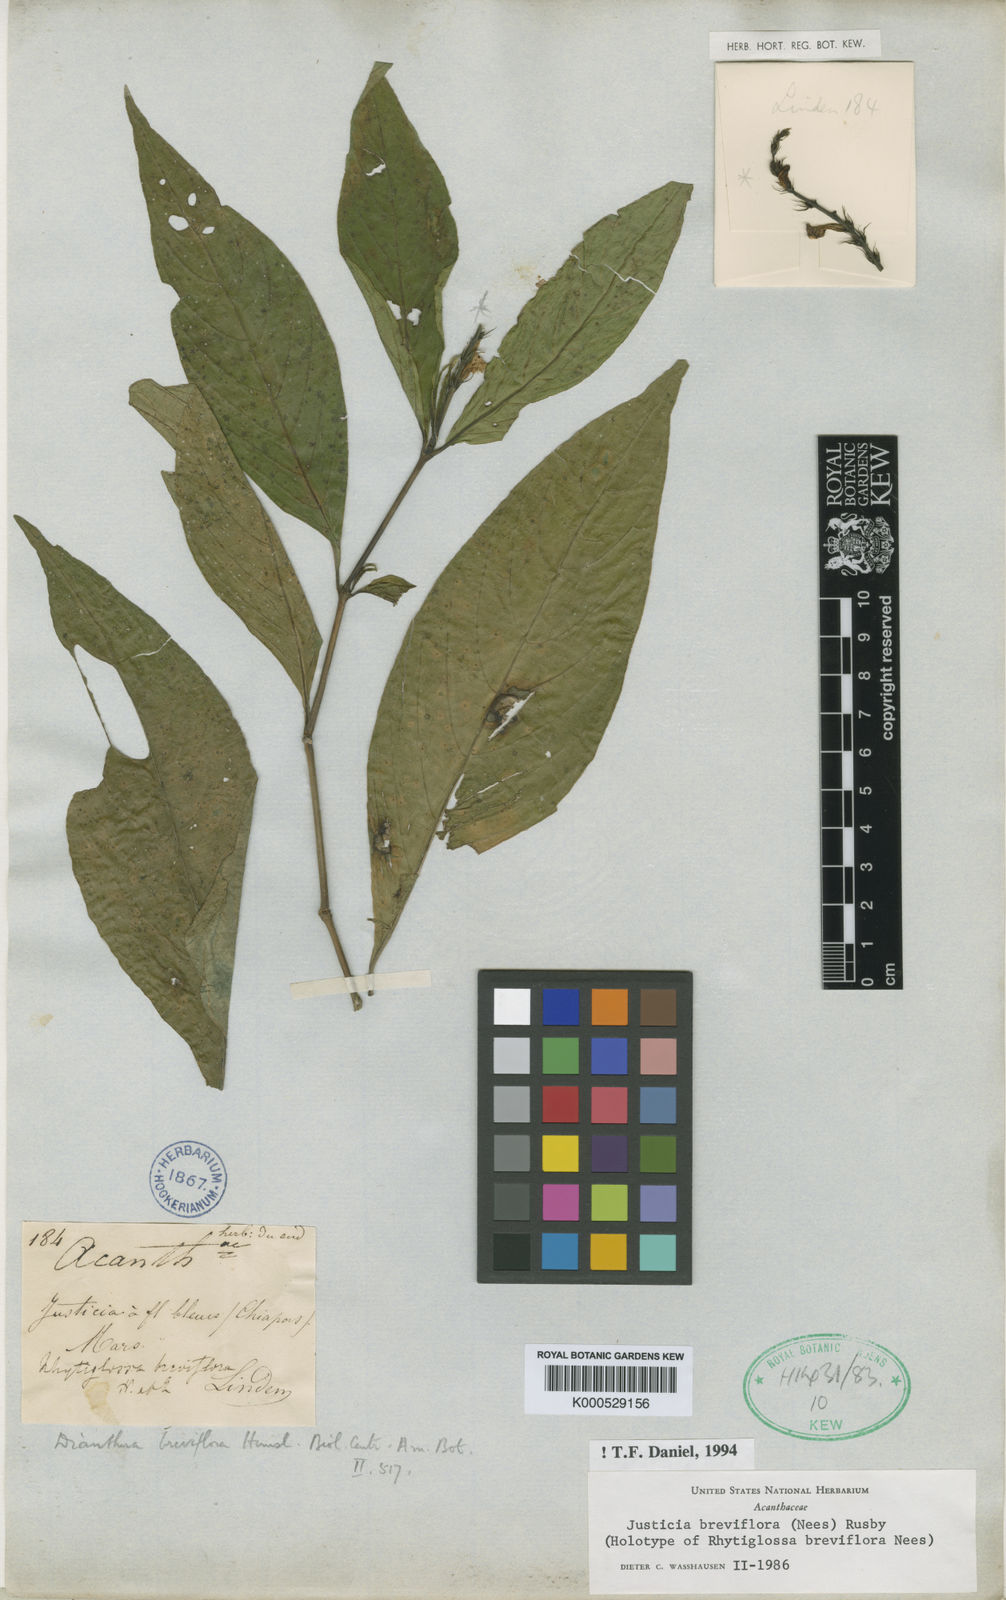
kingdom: Plantae
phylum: Tracheophyta
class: Magnoliopsida
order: Lamiales
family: Acanthaceae
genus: Dianthera
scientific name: Dianthera breviflora
